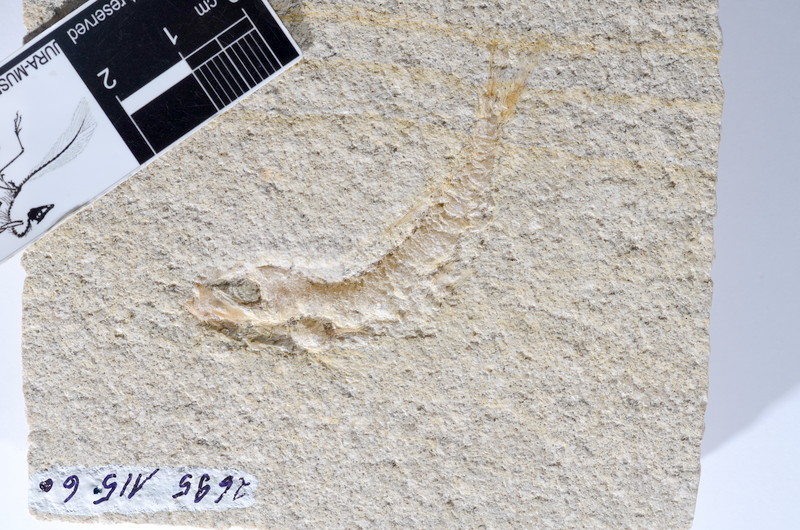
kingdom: Animalia
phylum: Chordata
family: Ascalaboidae
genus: Tharsis
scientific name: Tharsis dubius
